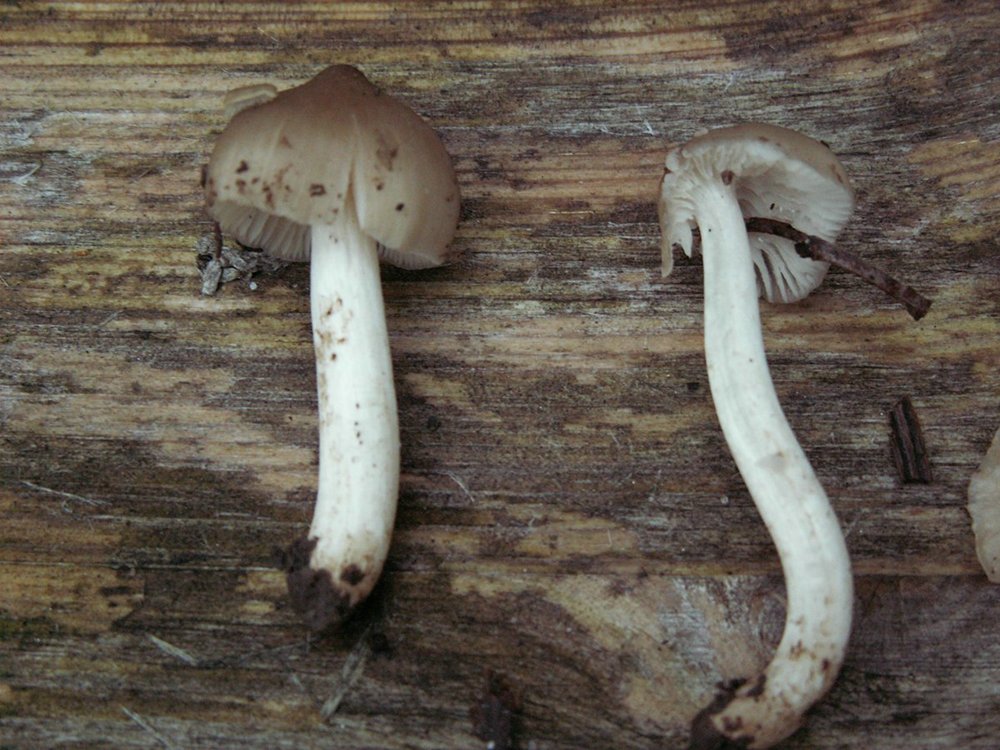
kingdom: Fungi
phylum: Basidiomycota
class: Agaricomycetes
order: Agaricales
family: Hygrophoraceae
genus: Cuphophyllus
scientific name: Cuphophyllus fornicatus
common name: gråbrun vokshat
